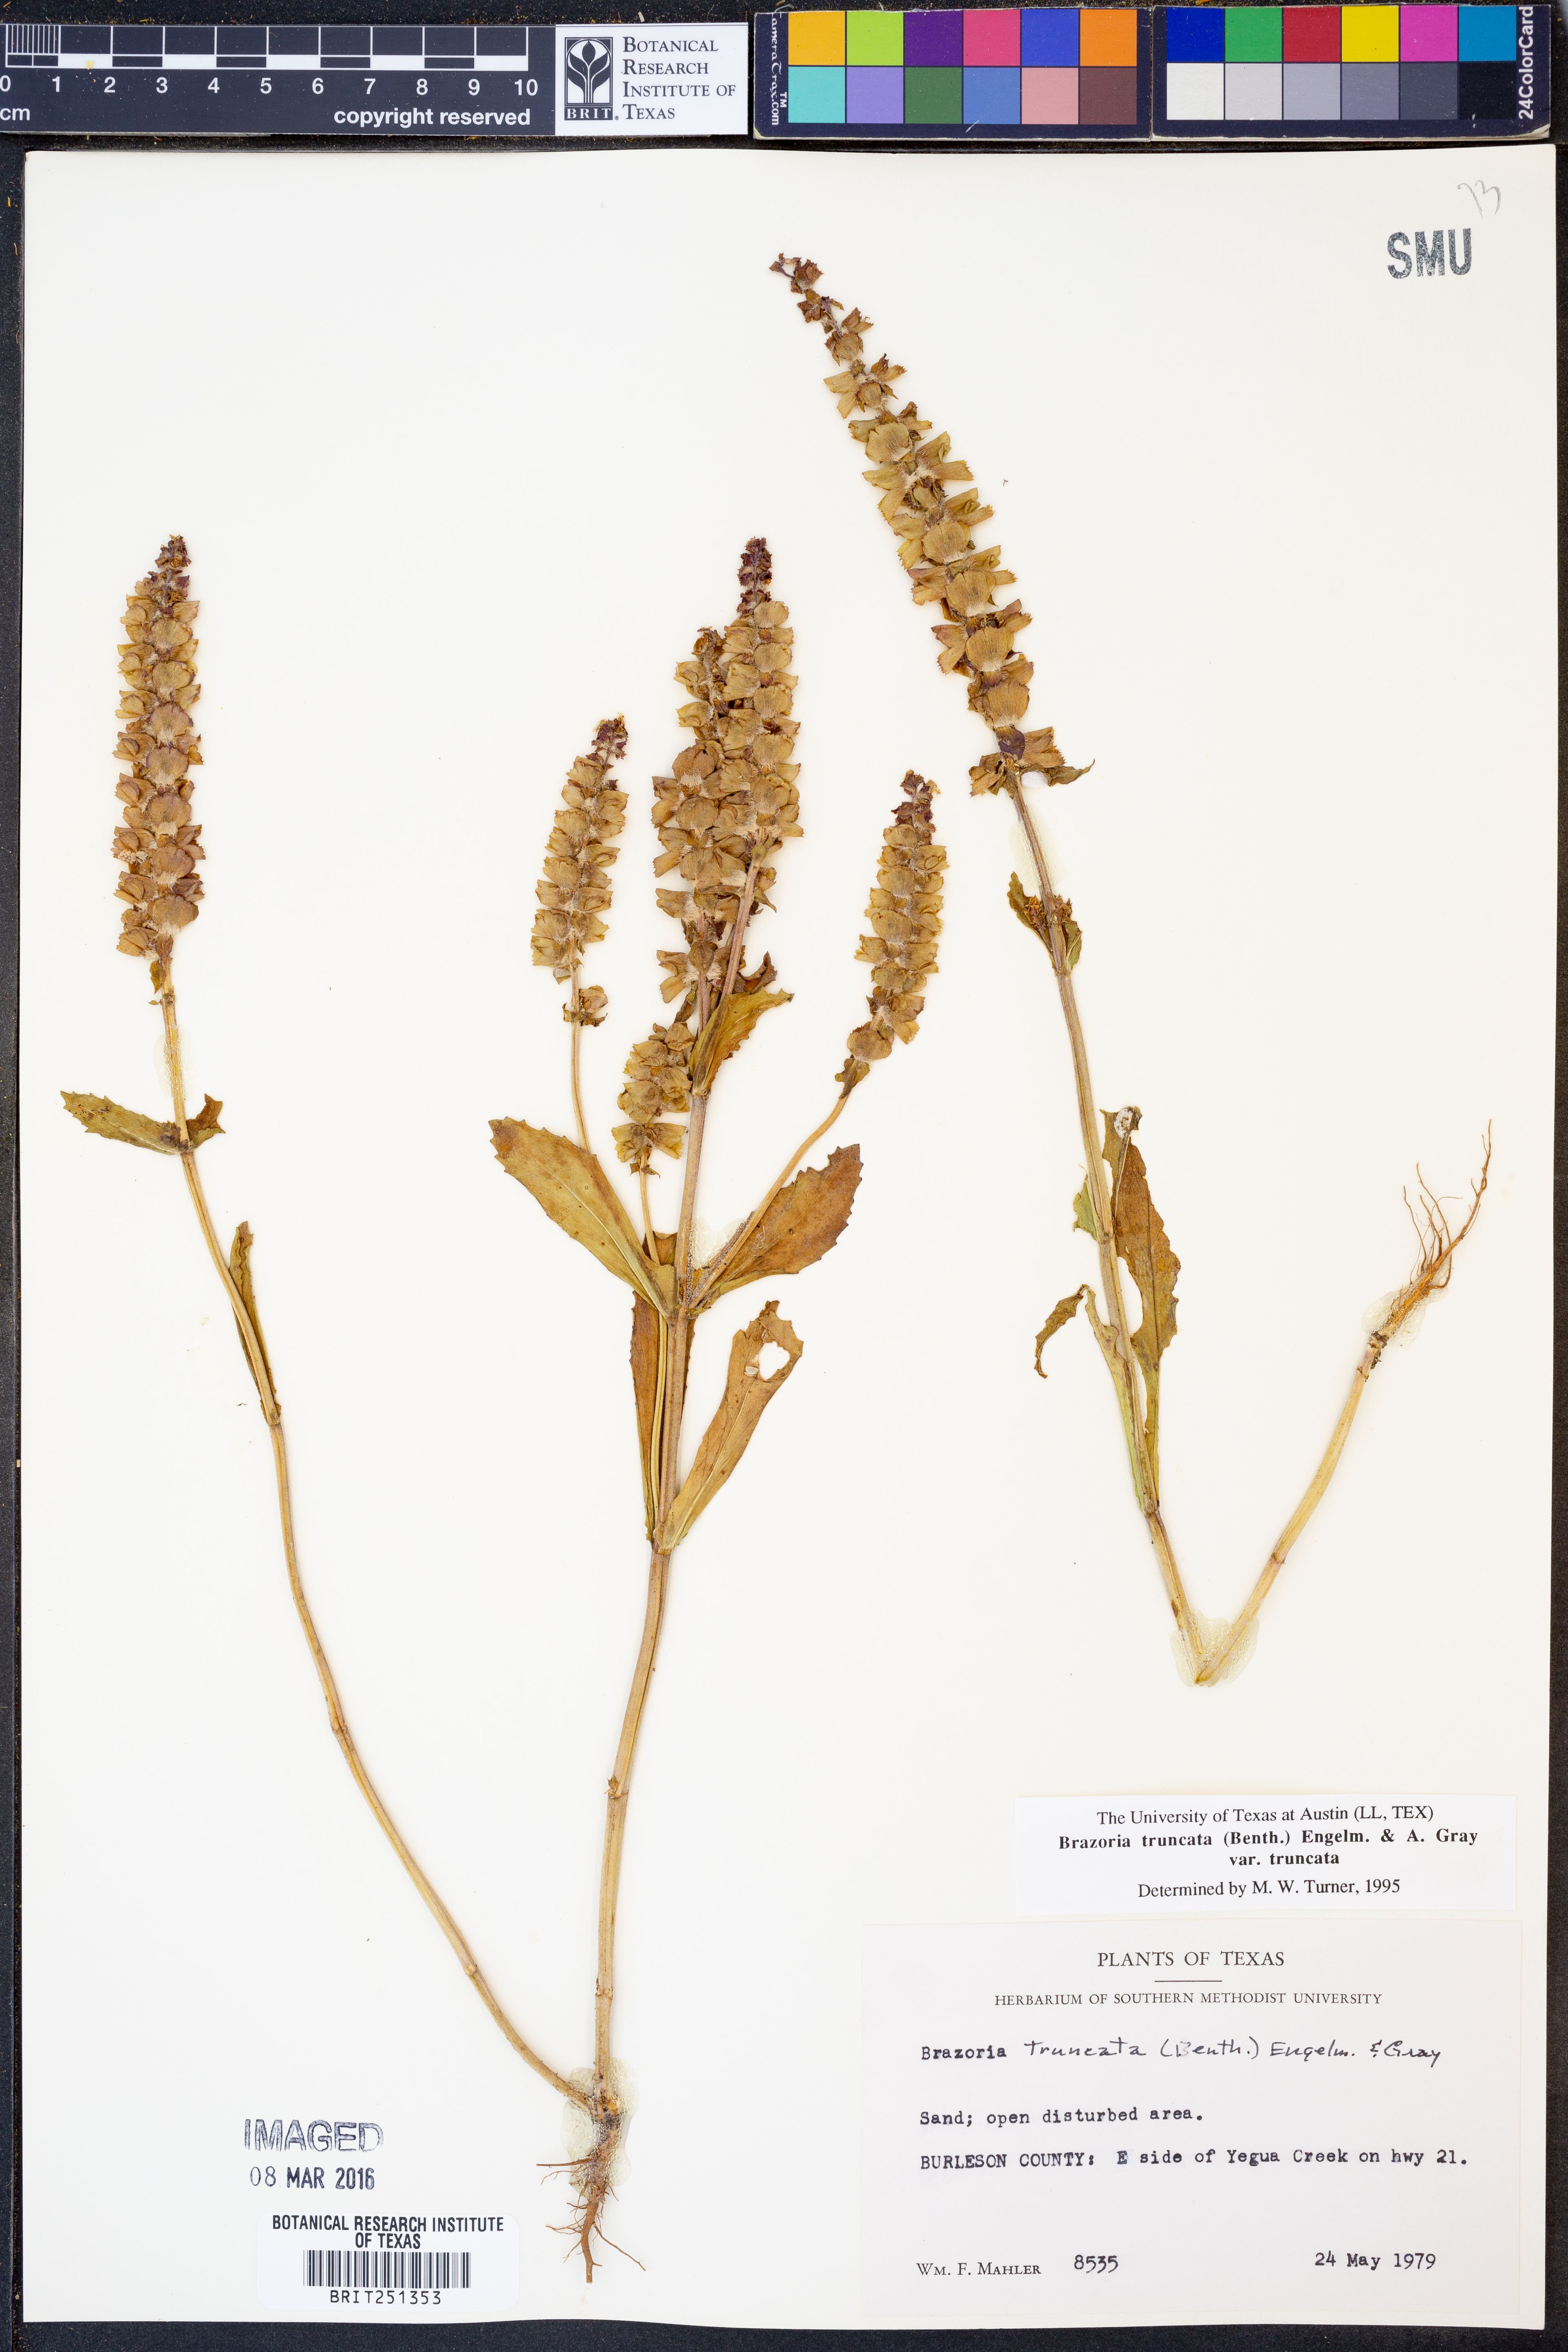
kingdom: Plantae
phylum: Tracheophyta
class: Magnoliopsida
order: Lamiales
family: Lamiaceae
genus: Brazoria
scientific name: Brazoria truncata
